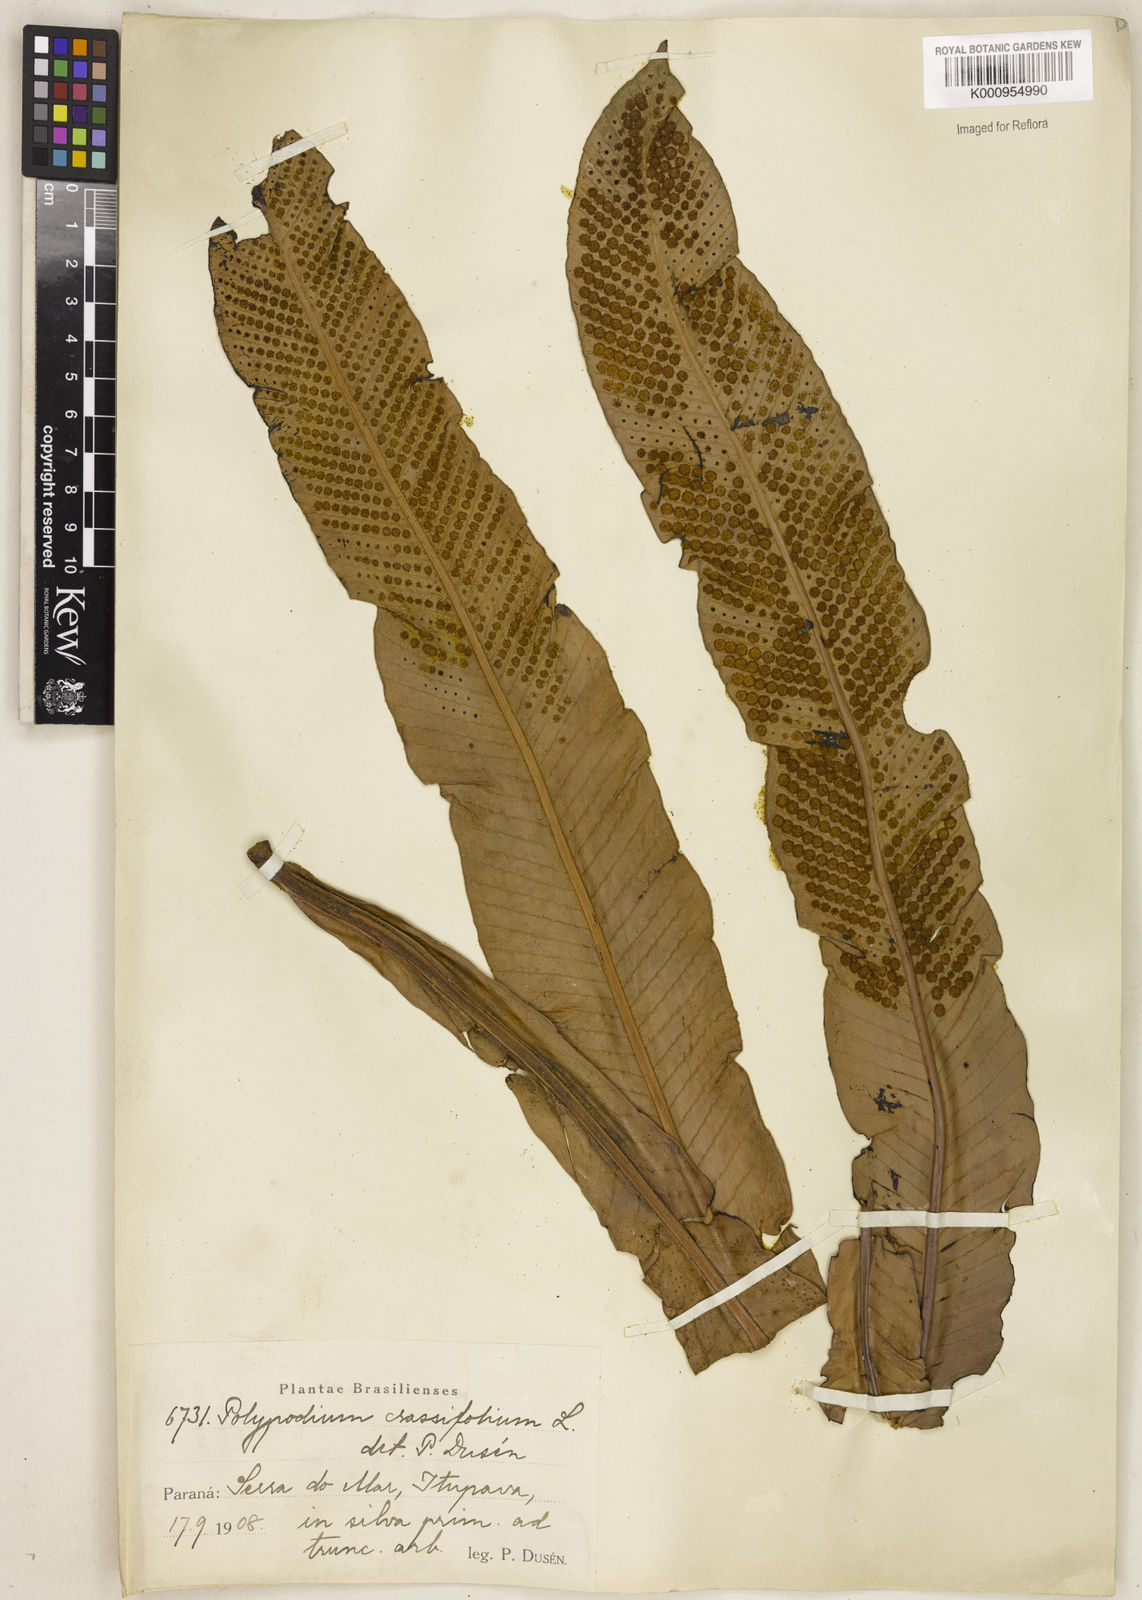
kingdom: Plantae
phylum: Tracheophyta
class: Polypodiopsida
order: Polypodiales
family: Polypodiaceae
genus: Niphidium
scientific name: Niphidium crassifolium
